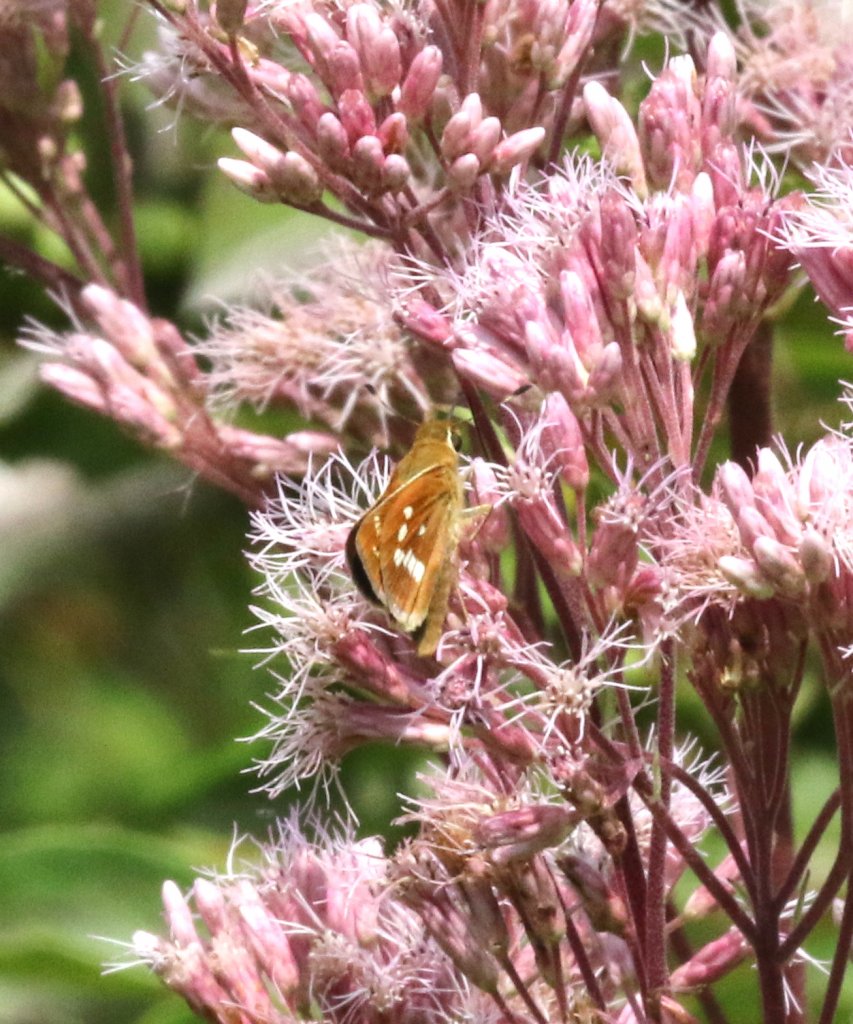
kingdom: Animalia
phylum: Arthropoda
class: Insecta
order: Lepidoptera
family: Hesperiidae
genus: Hesperia
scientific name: Hesperia leonardus
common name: Leonard's Skipper
